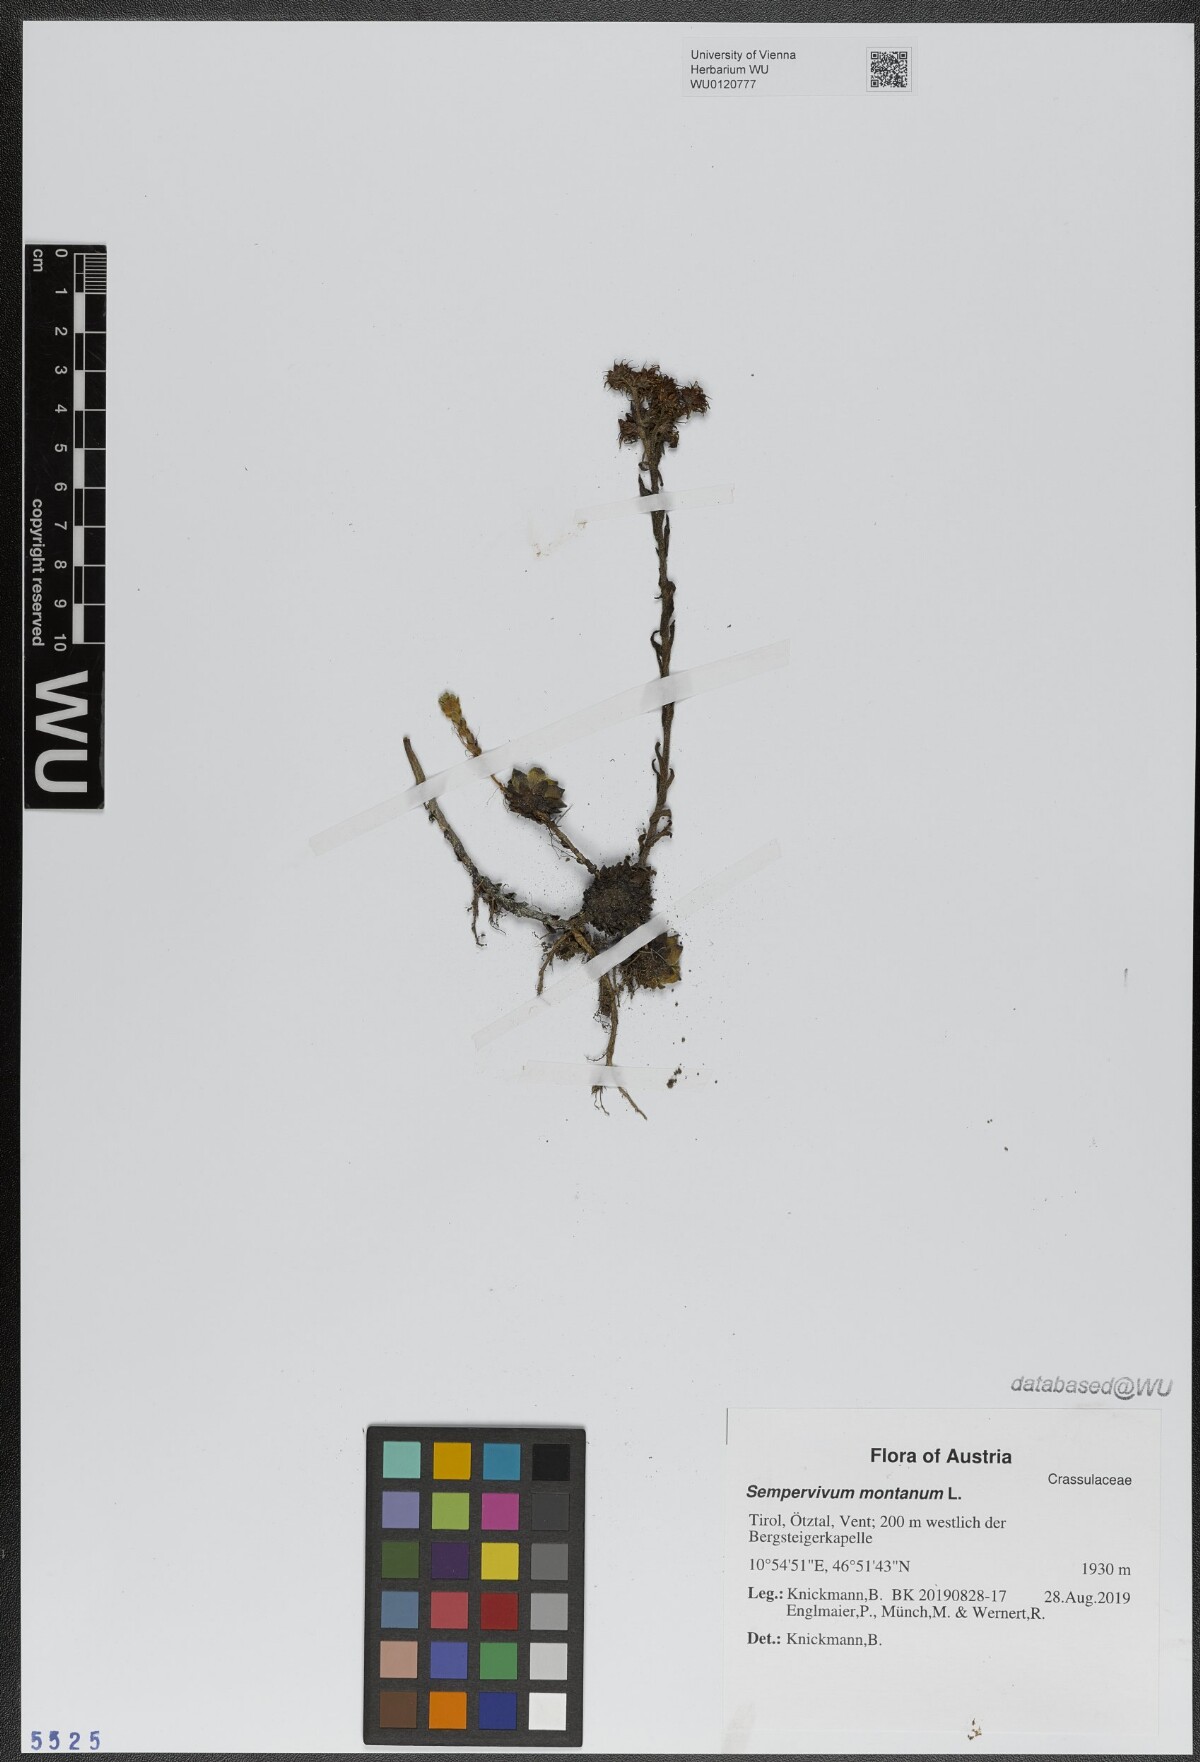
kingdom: Plantae
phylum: Tracheophyta
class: Magnoliopsida
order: Saxifragales
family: Crassulaceae
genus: Sempervivum
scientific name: Sempervivum montanum
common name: Mountain house-leek
